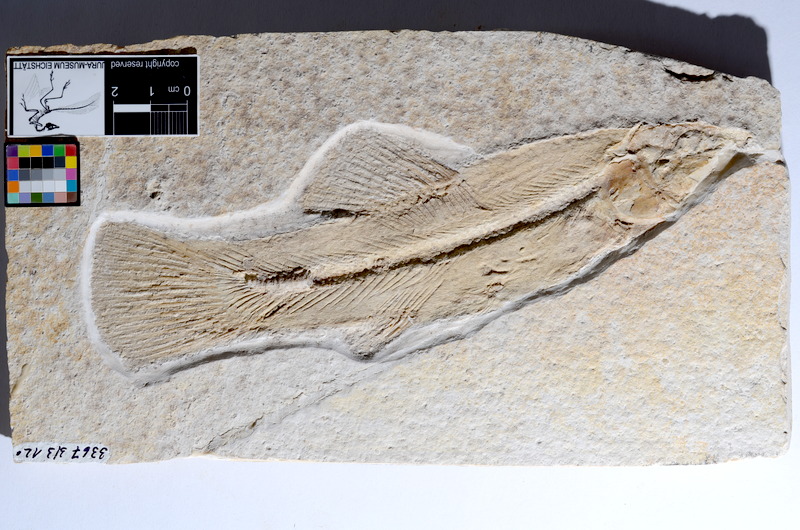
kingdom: Animalia
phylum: Chordata
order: Amiiformes
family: Amiidae
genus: Amiopsis
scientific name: Amiopsis lepidota
